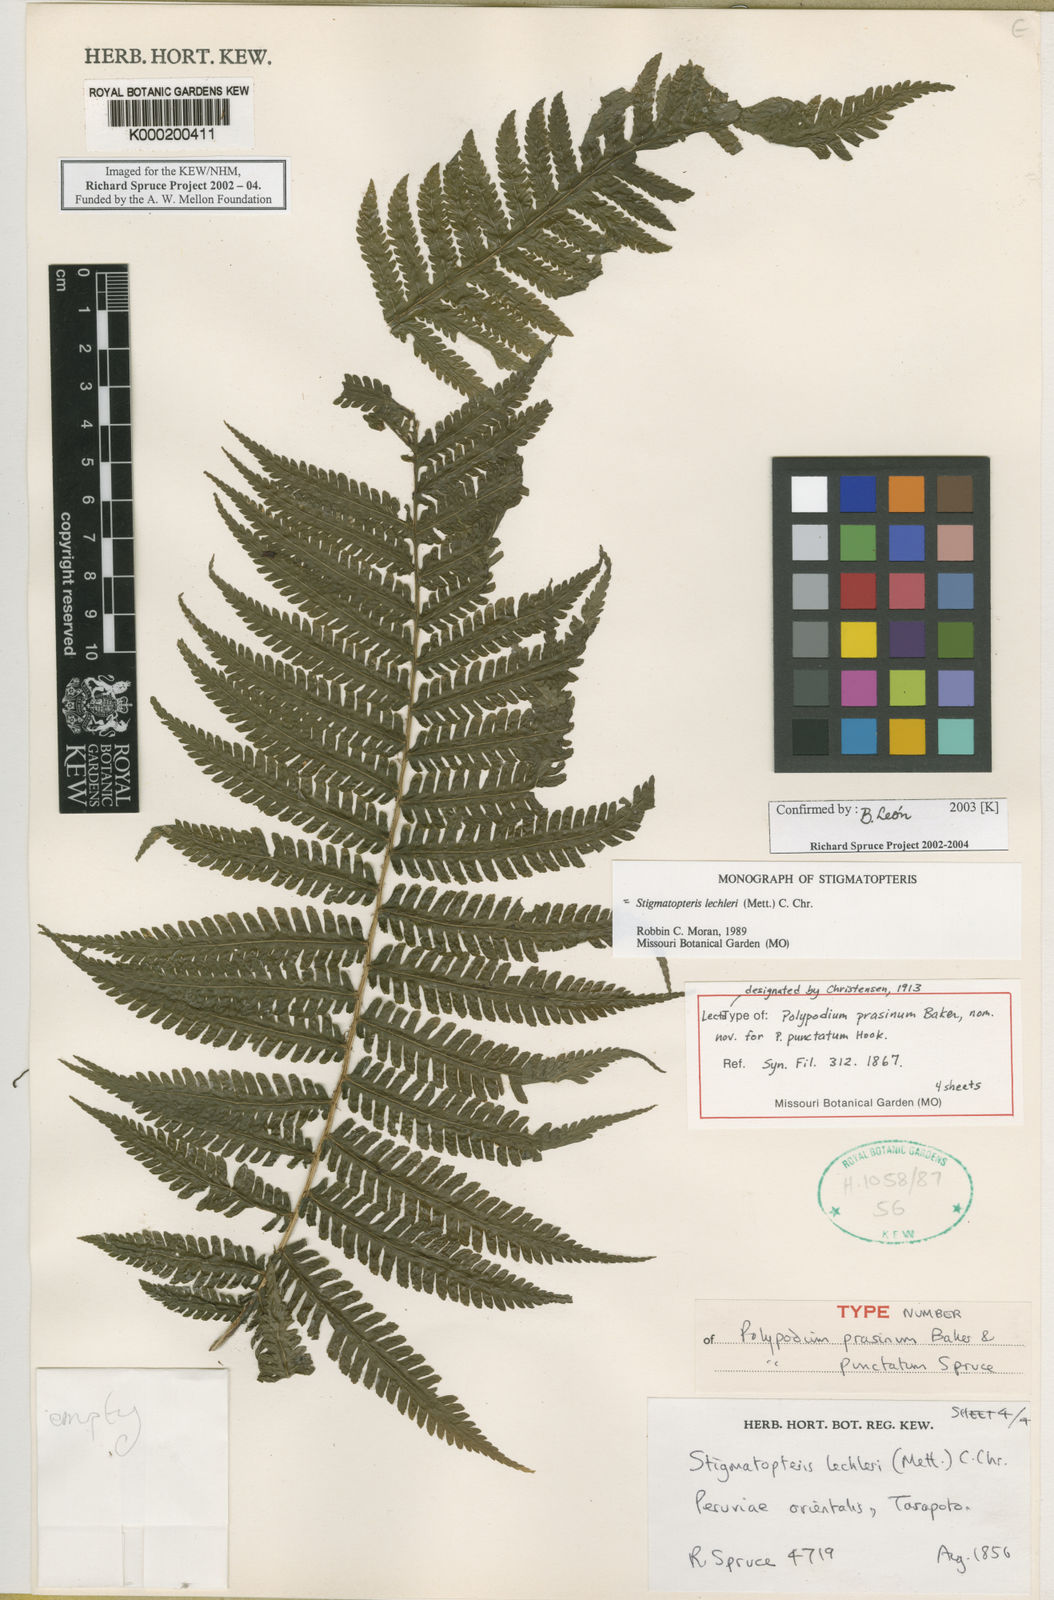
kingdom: Plantae
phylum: Tracheophyta
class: Polypodiopsida
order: Polypodiales
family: Dryopteridaceae
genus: Stigmatopteris
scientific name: Stigmatopteris lechleri
